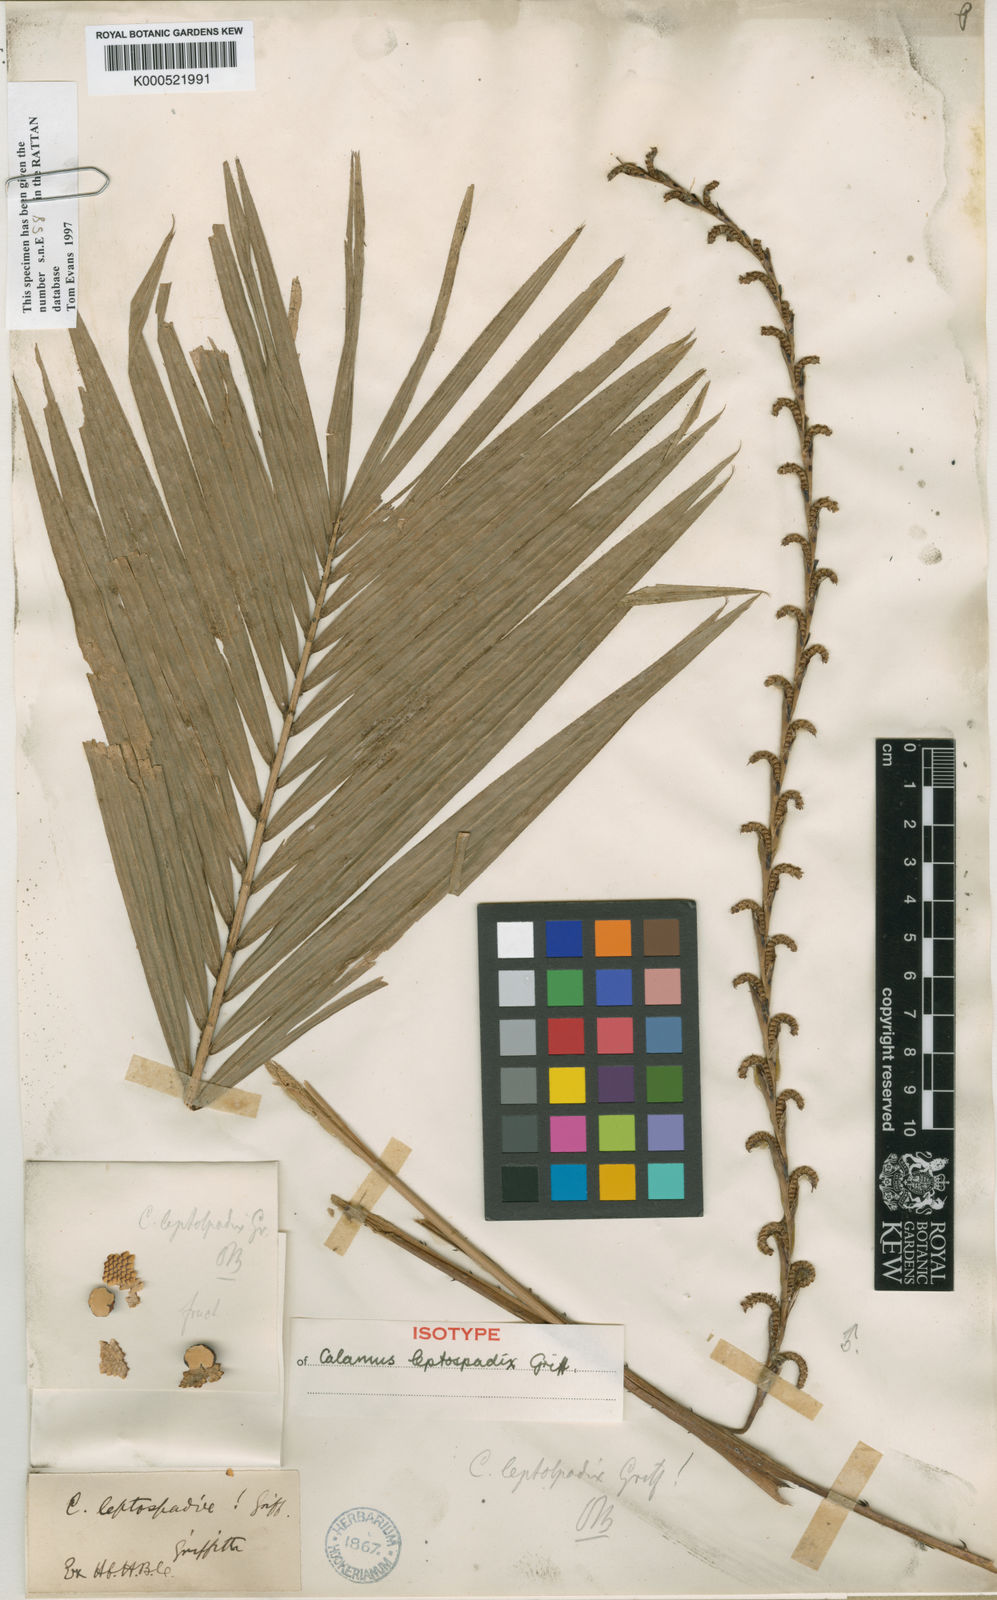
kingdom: Plantae
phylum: Tracheophyta
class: Liliopsida
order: Arecales
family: Arecaceae
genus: Calamus
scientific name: Calamus leptospadix
